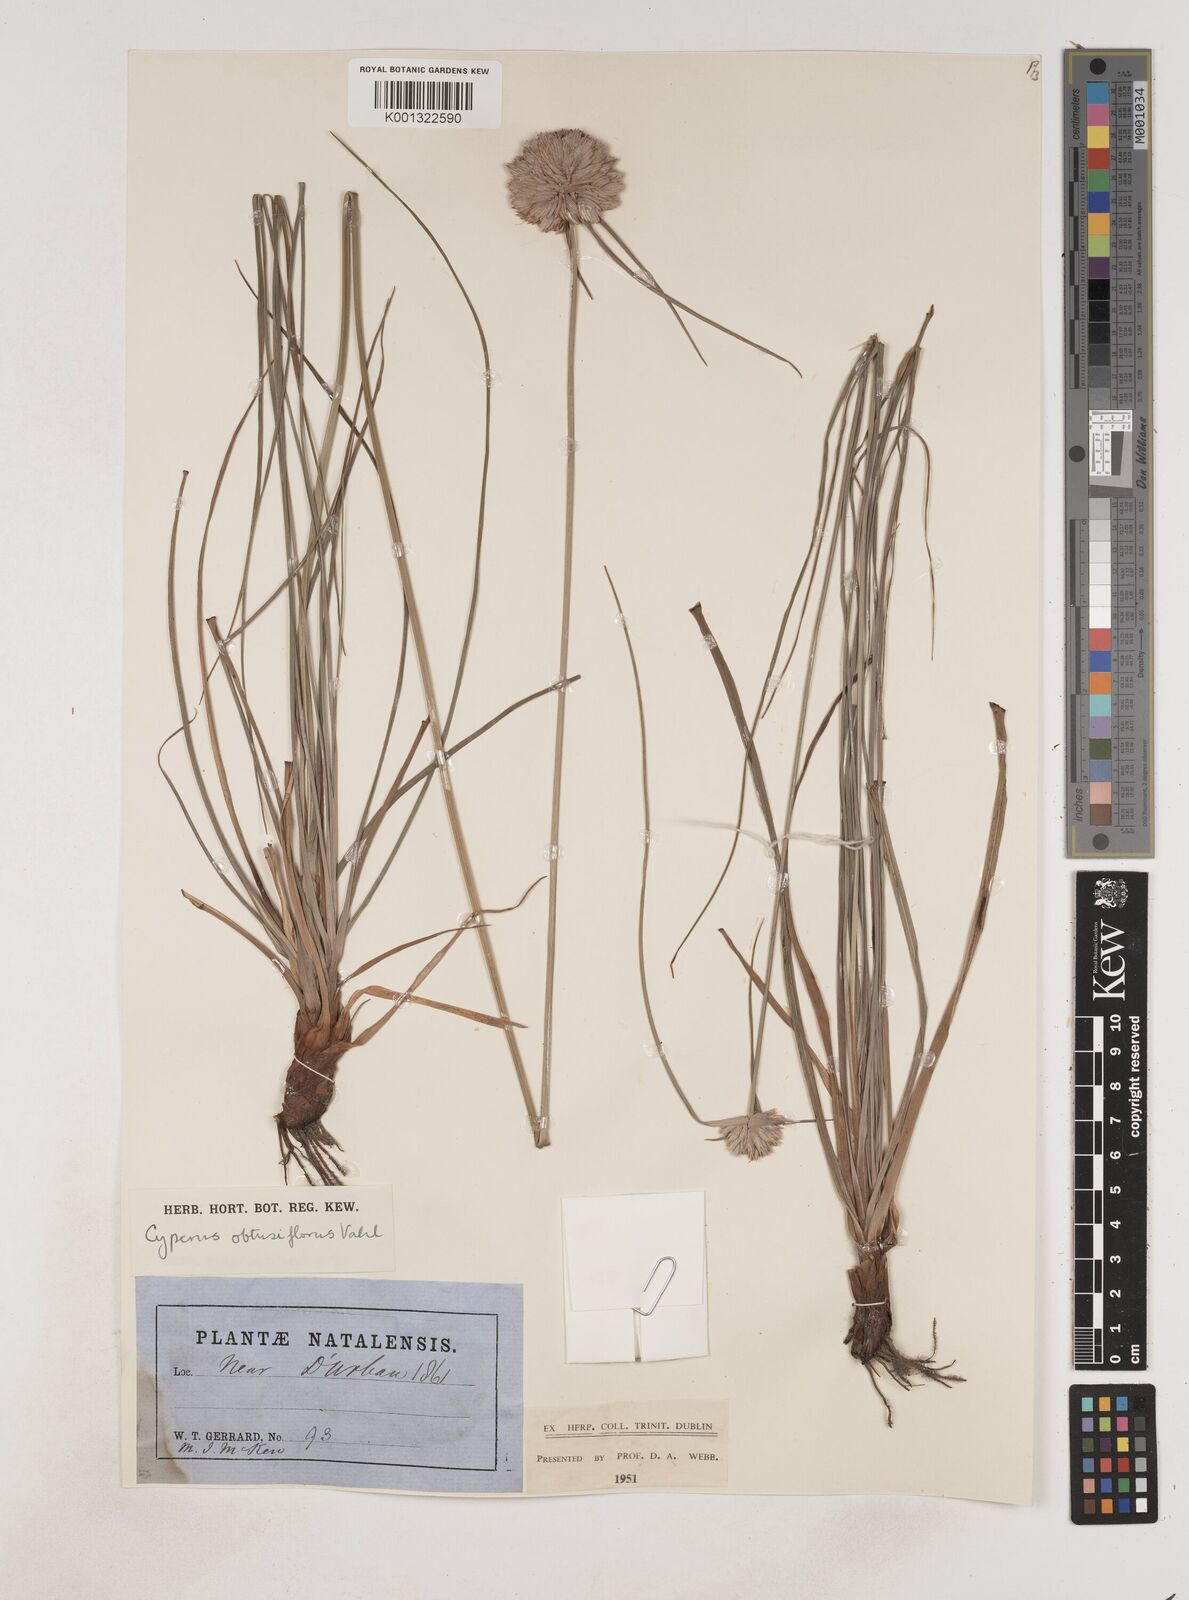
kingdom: Plantae
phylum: Tracheophyta
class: Liliopsida
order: Poales
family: Cyperaceae
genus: Cyperus
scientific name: Cyperus niveus
